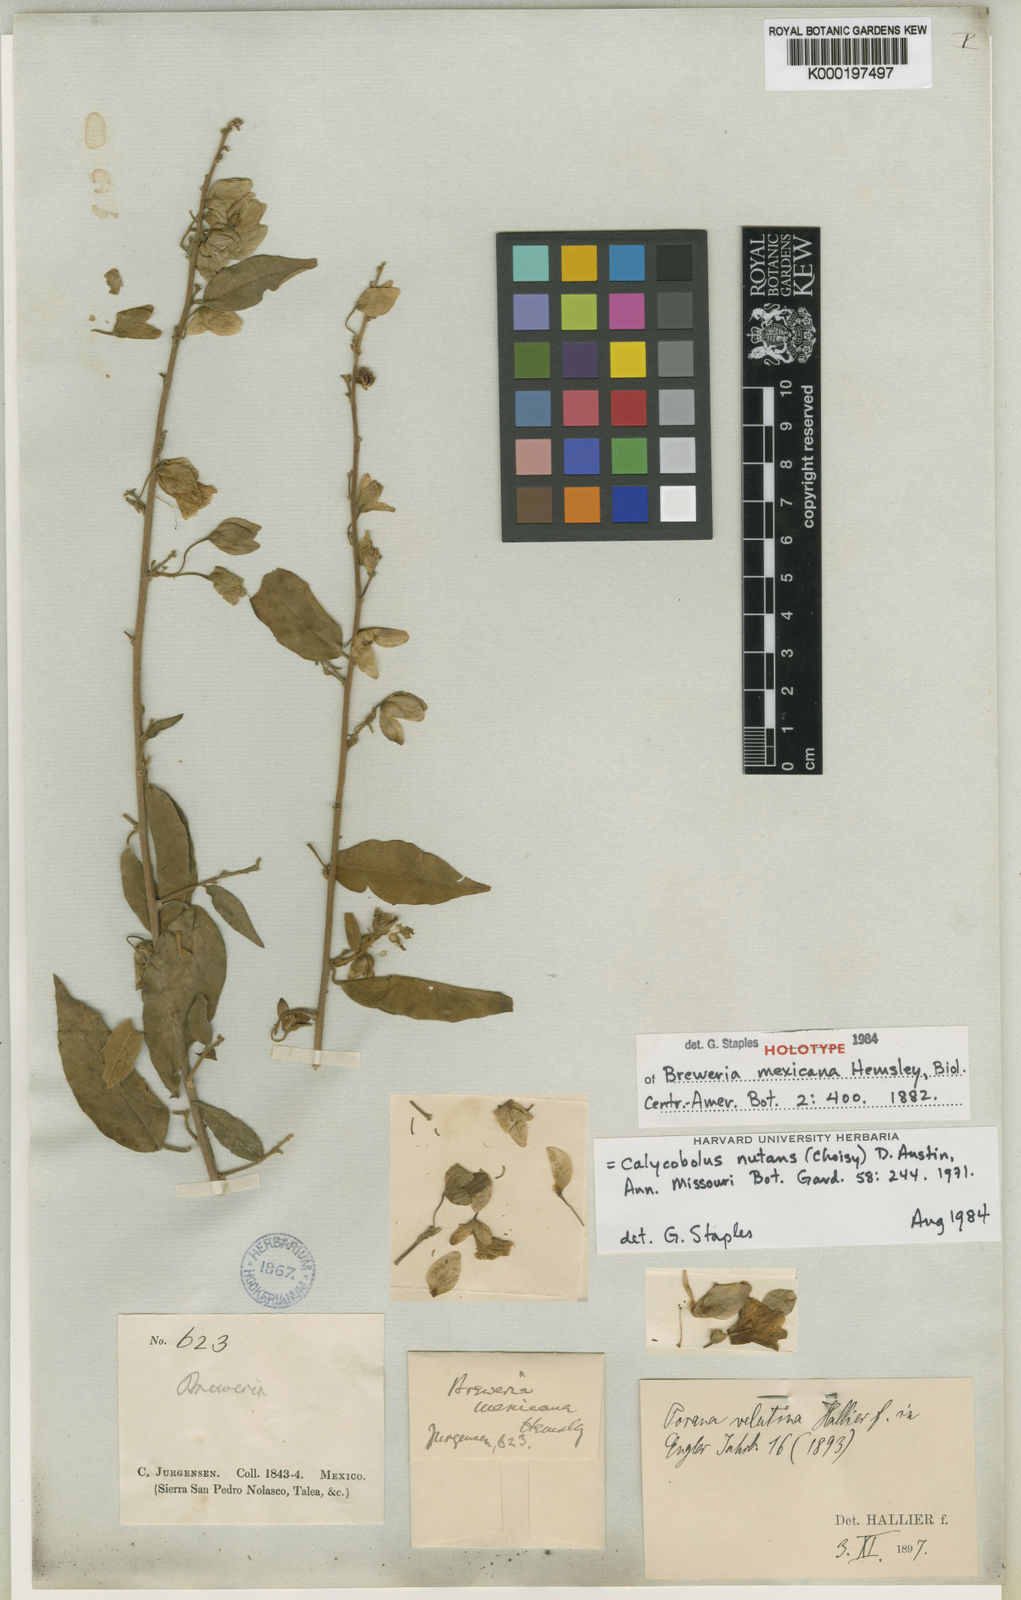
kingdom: Plantae
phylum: Tracheophyta
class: Magnoliopsida
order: Solanales
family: Convolvulaceae
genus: Calycobolus
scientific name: Calycobolus nutans
